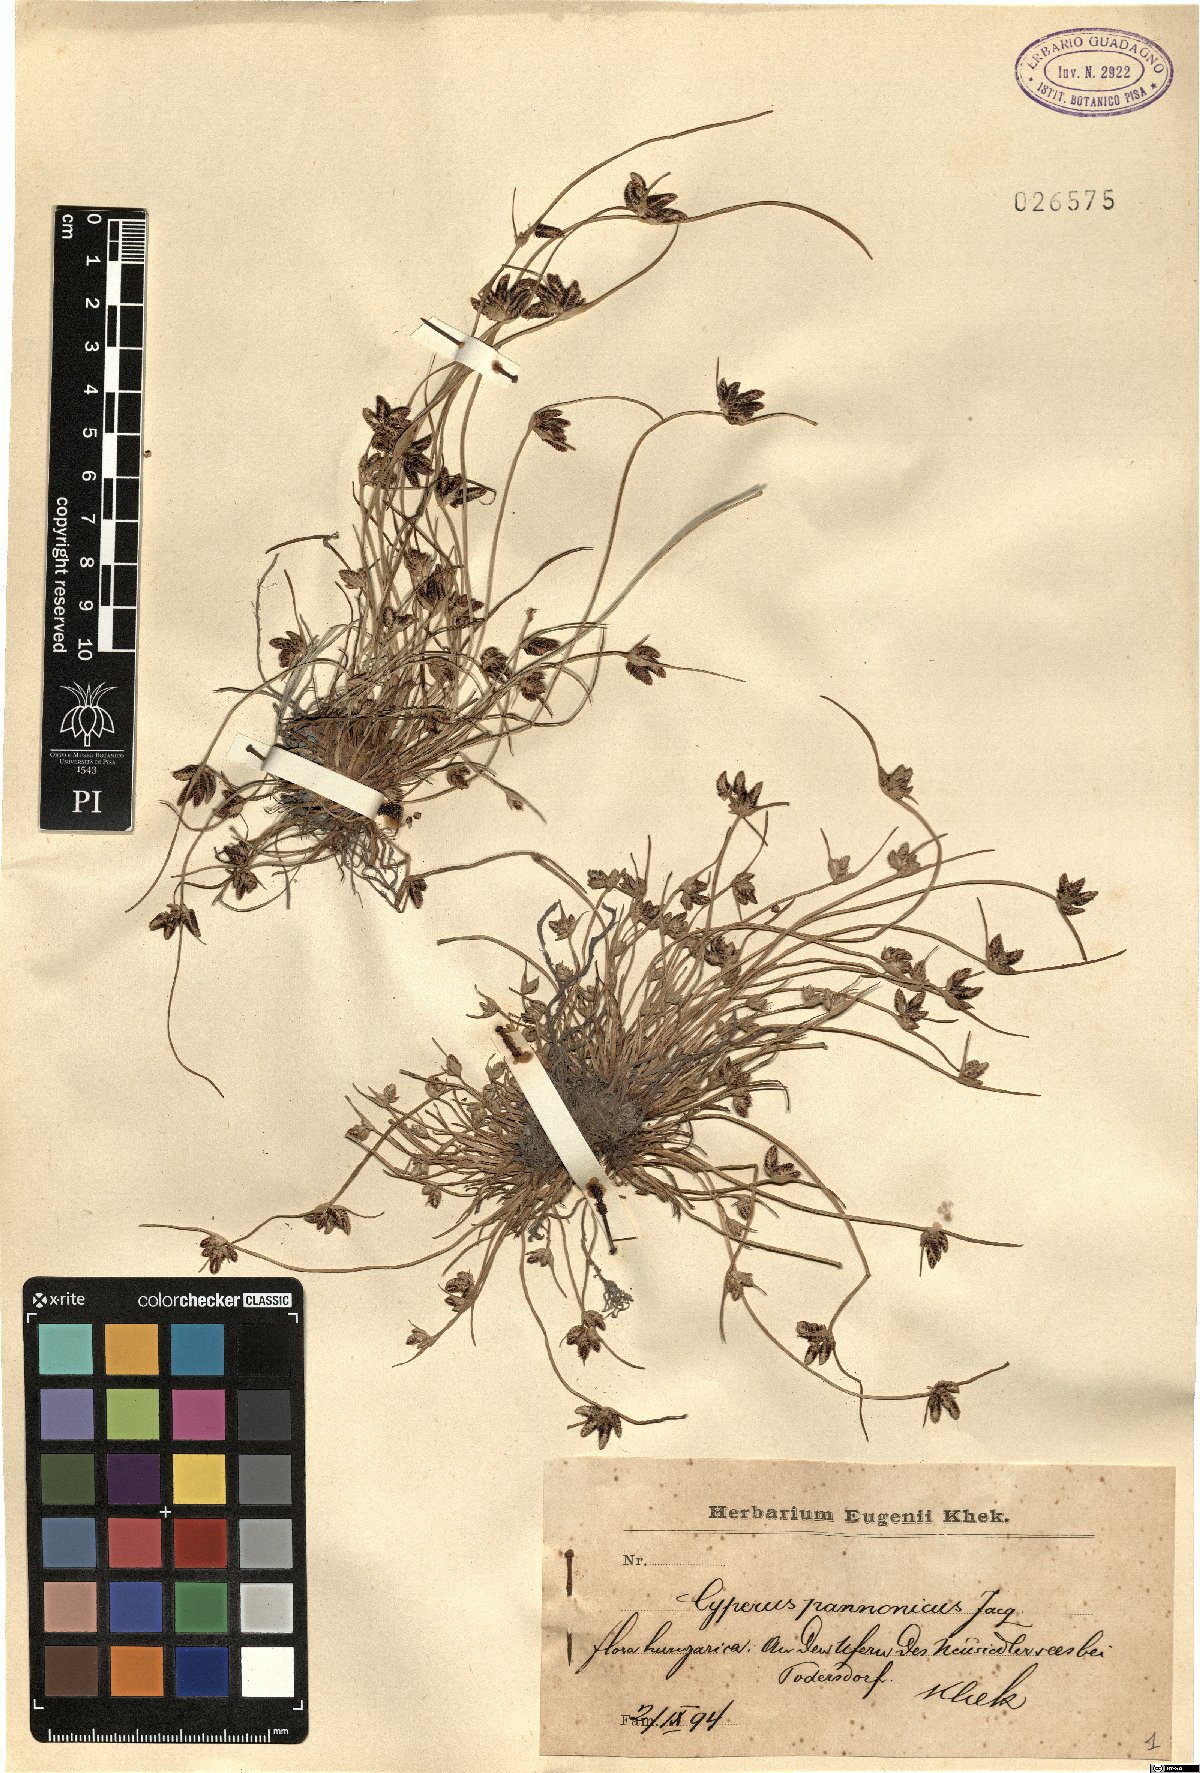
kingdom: Plantae
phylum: Tracheophyta
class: Liliopsida
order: Poales
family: Cyperaceae
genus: Cyperus
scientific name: Cyperus pannonicus
